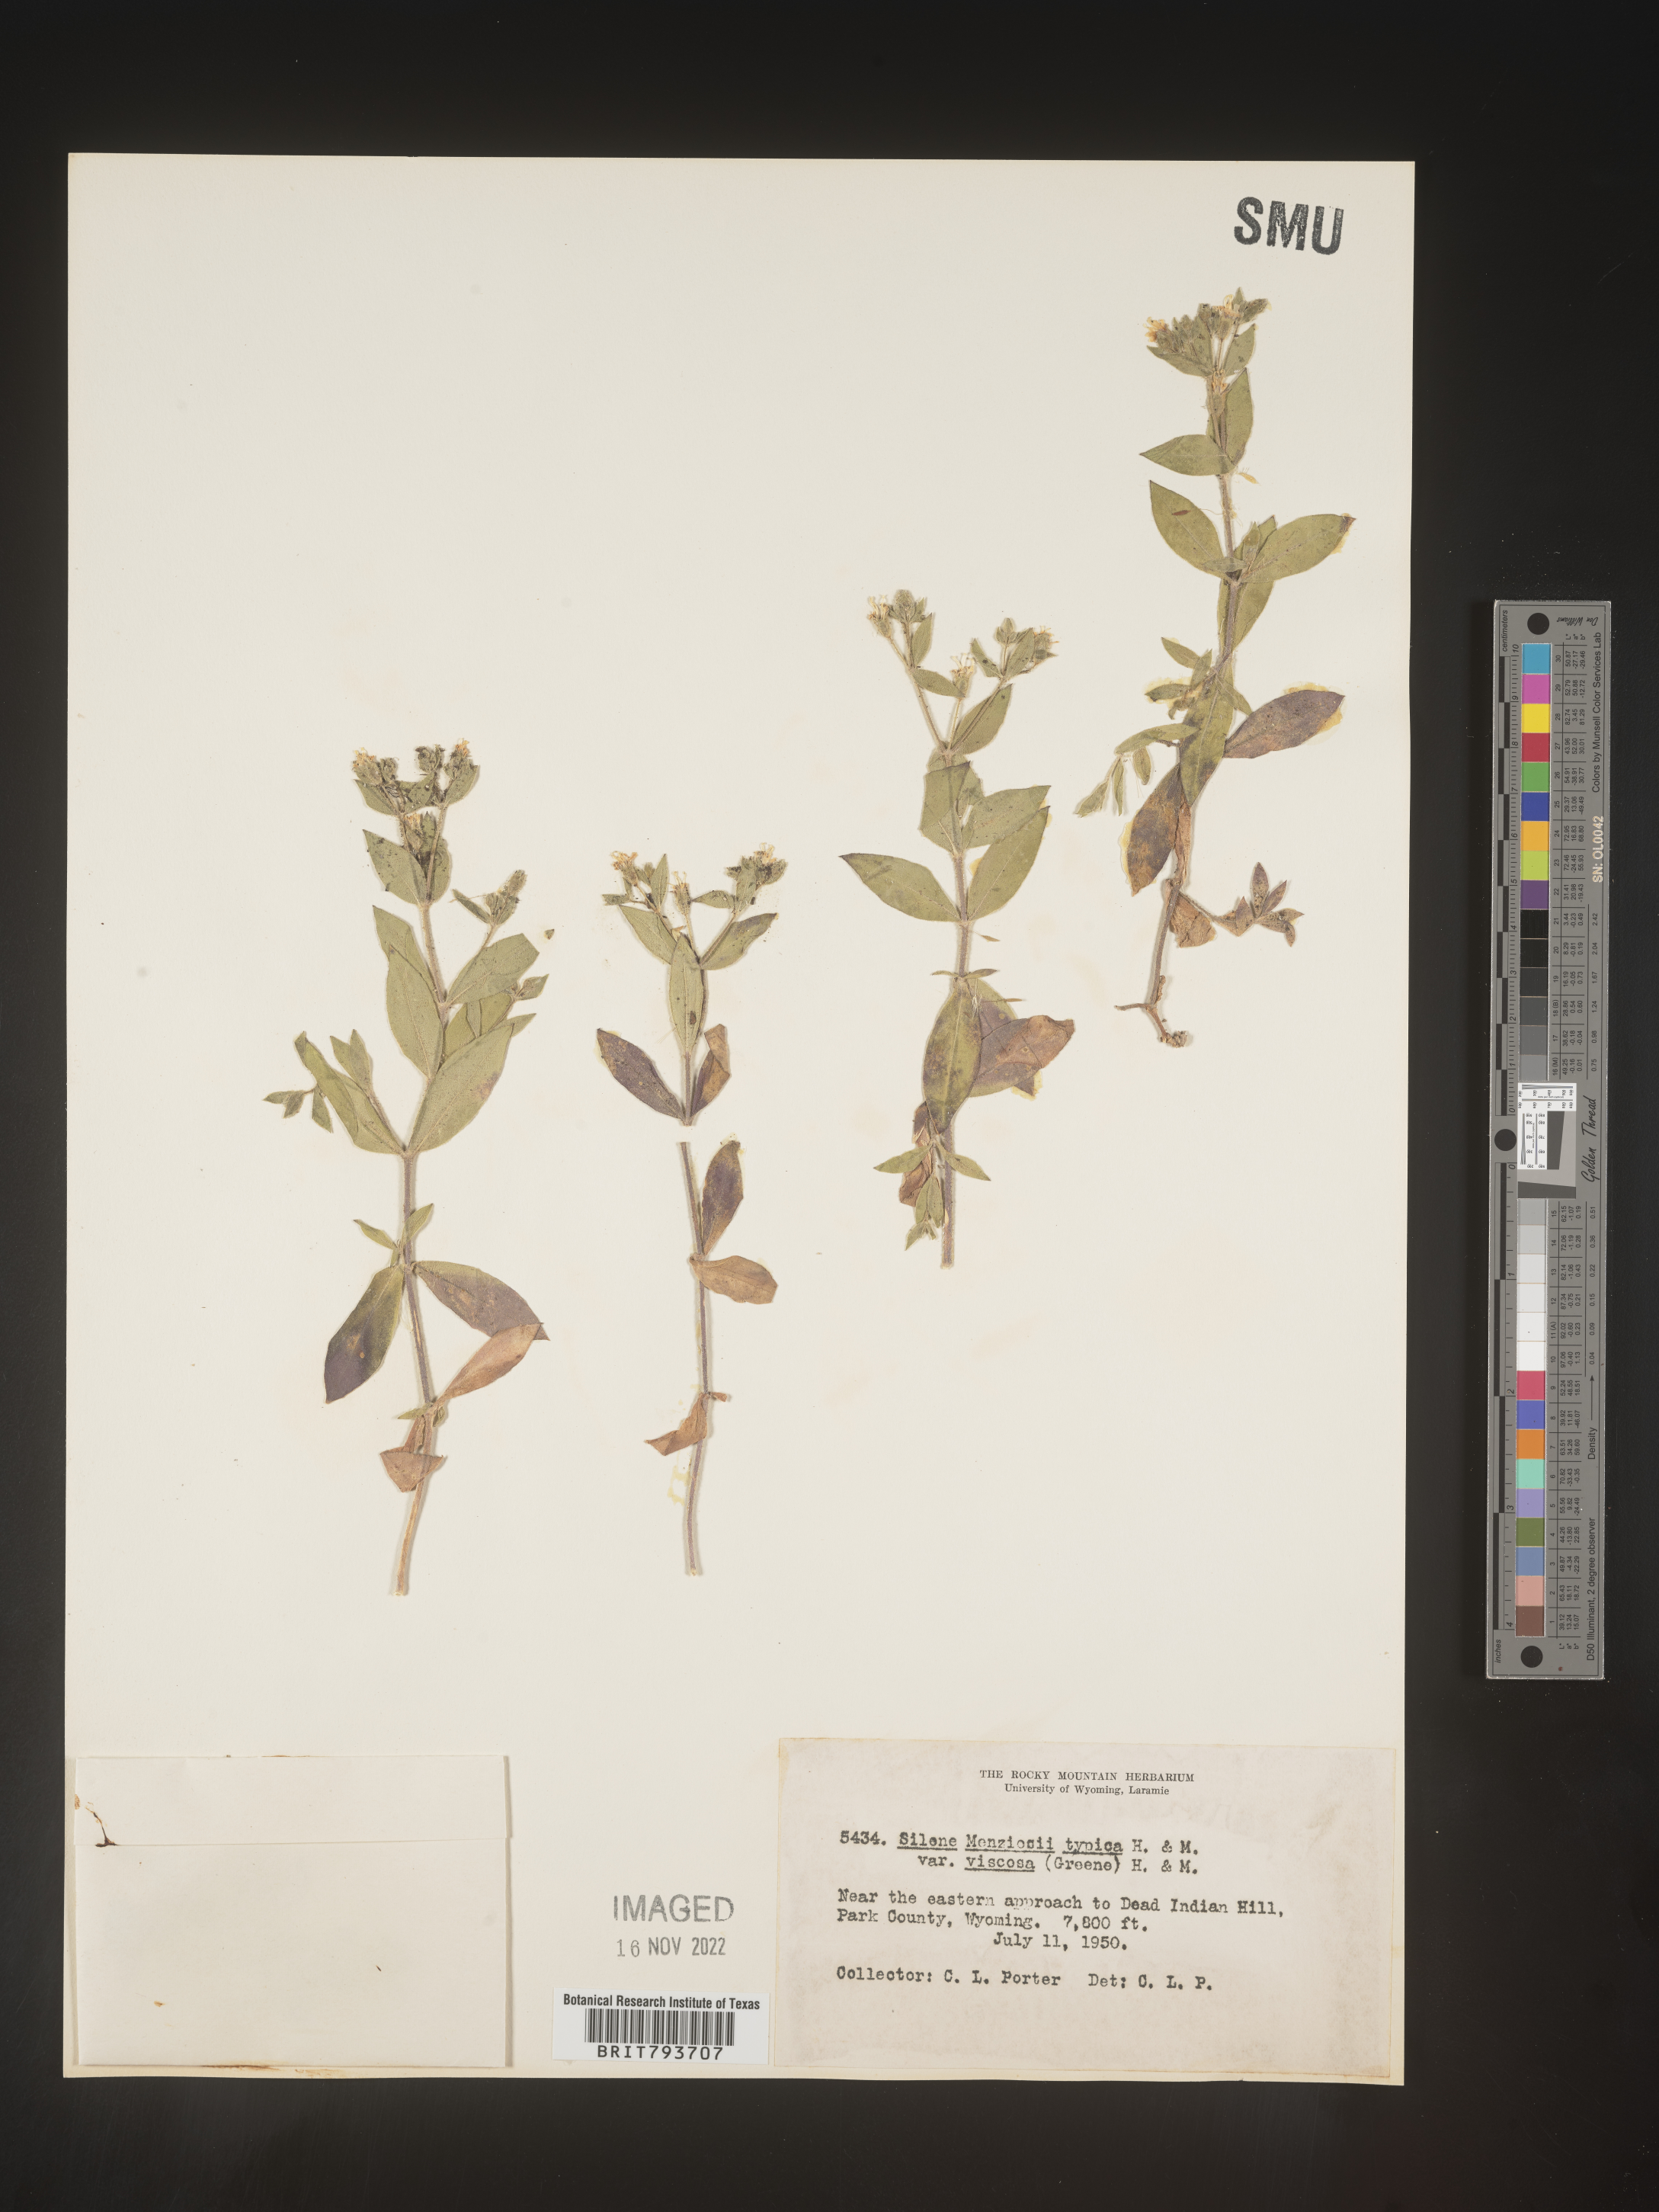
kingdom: Plantae
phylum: Tracheophyta
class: Magnoliopsida
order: Caryophyllales
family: Caryophyllaceae
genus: Silene
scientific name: Silene menziesii
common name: Menzies's catchfly
